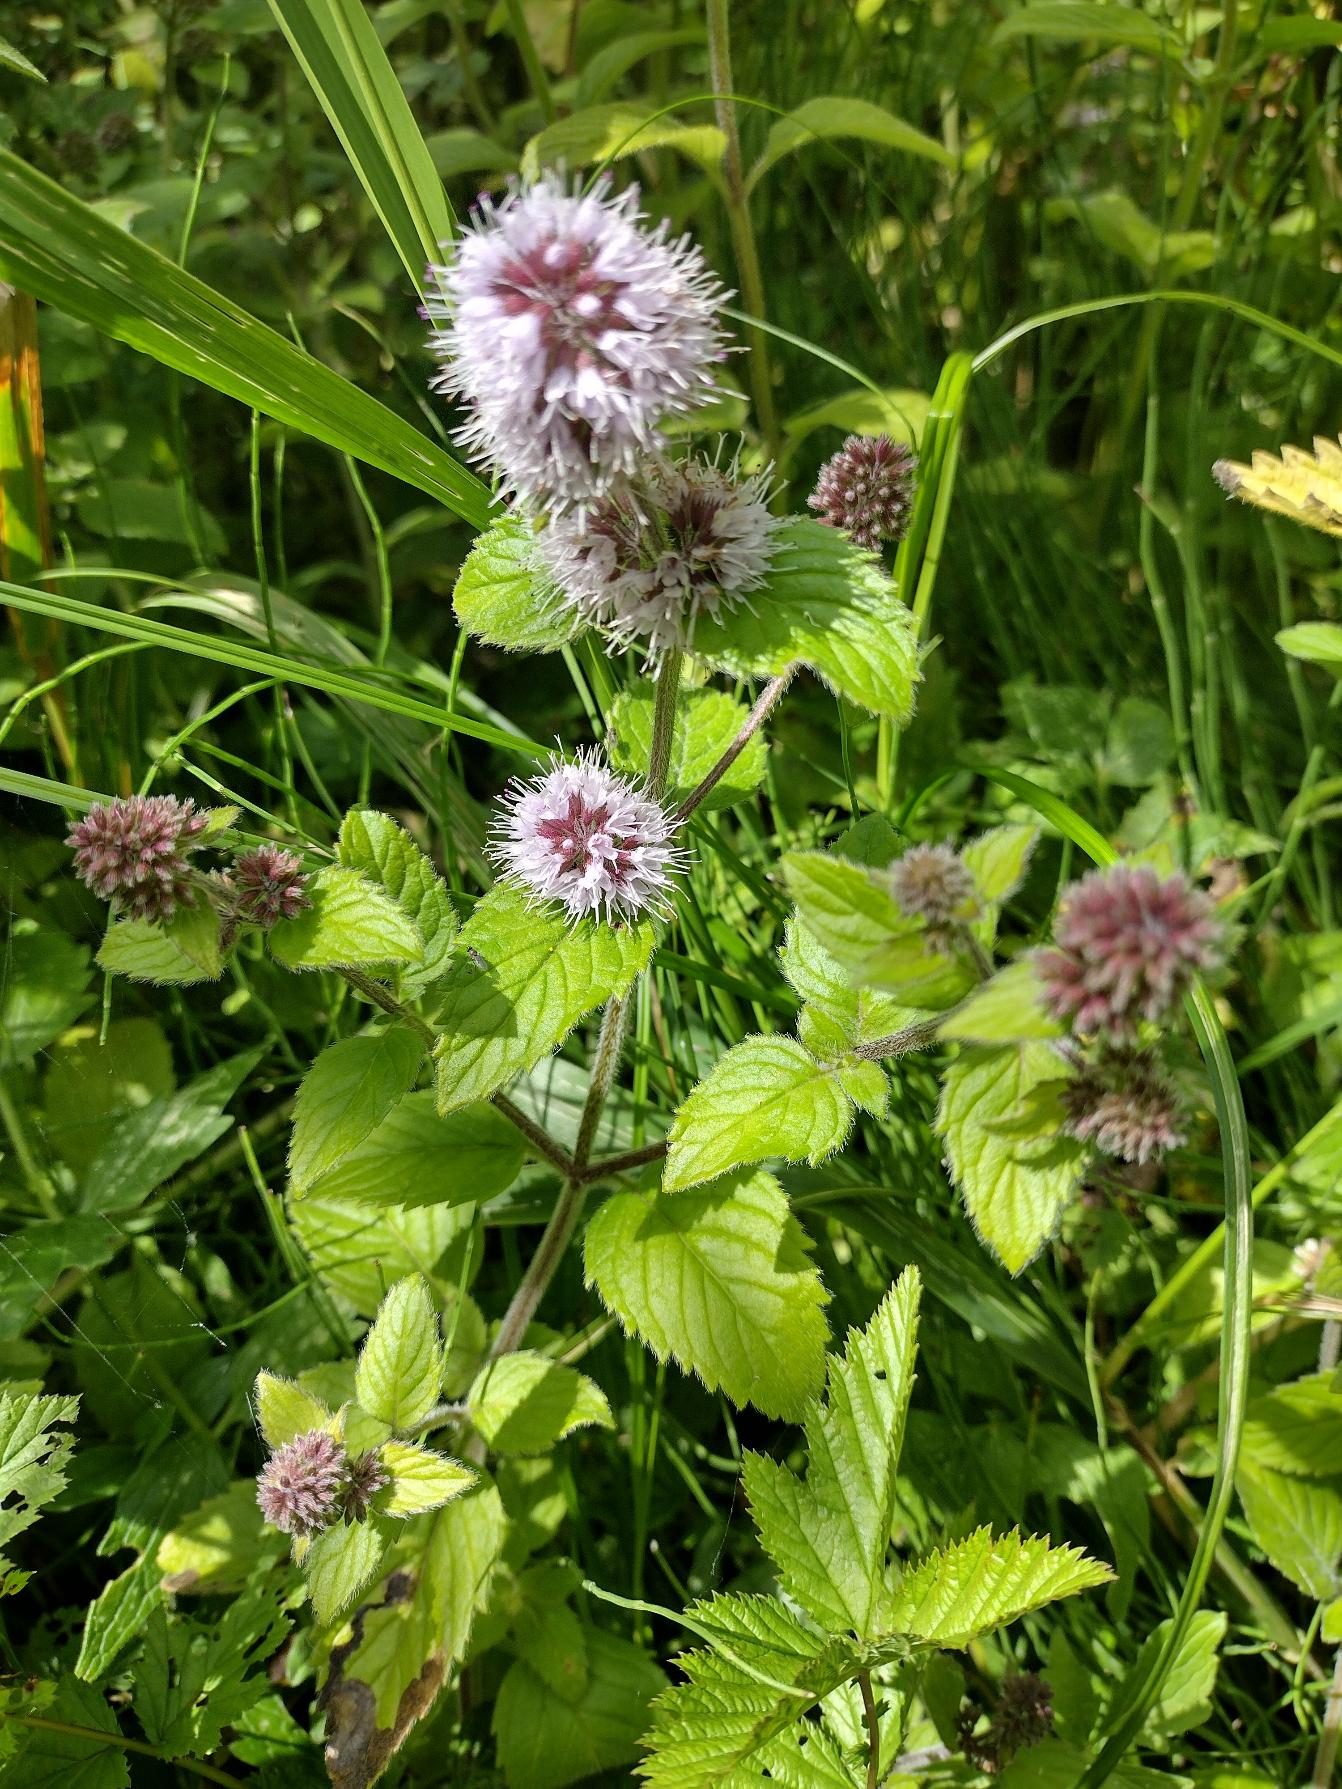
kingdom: Plantae
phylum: Tracheophyta
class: Magnoliopsida
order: Lamiales
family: Lamiaceae
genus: Mentha
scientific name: Mentha aquatica
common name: Vand-mynte
